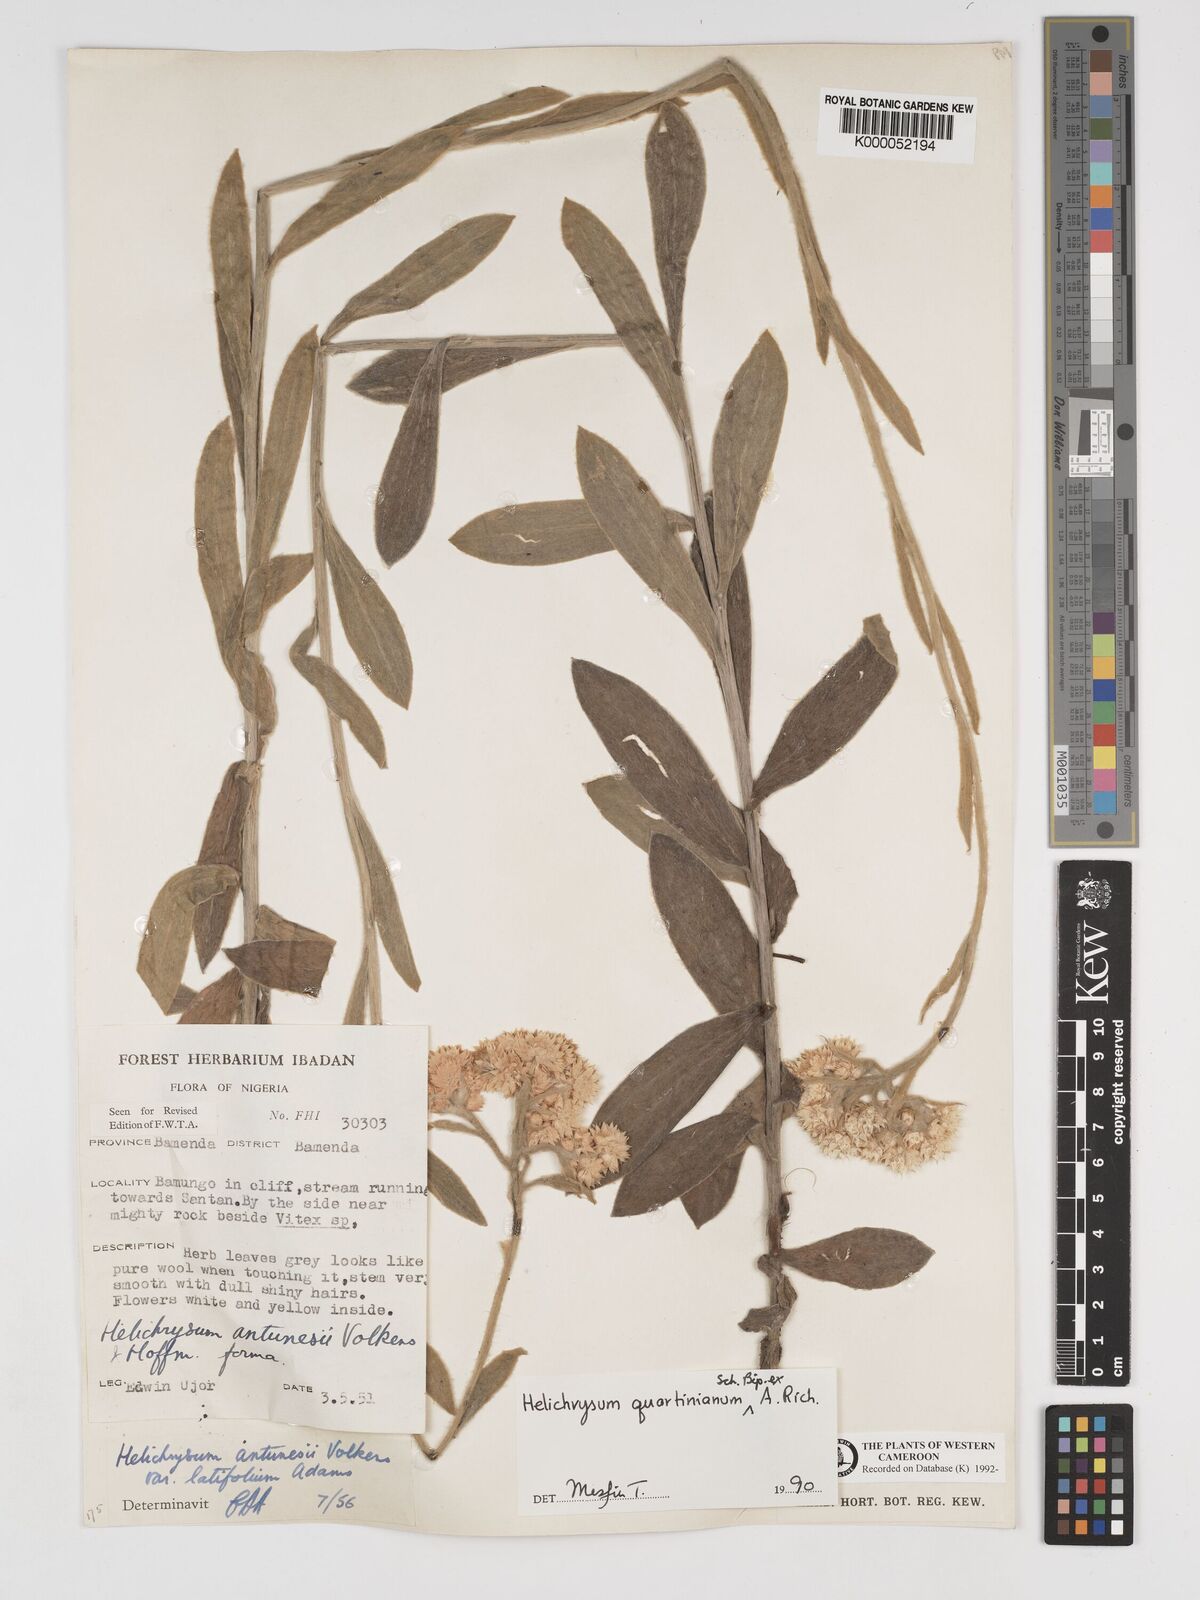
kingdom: Plantae
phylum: Tracheophyta
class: Magnoliopsida
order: Asterales
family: Asteraceae
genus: Helichrysum
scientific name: Helichrysum quartinianum
